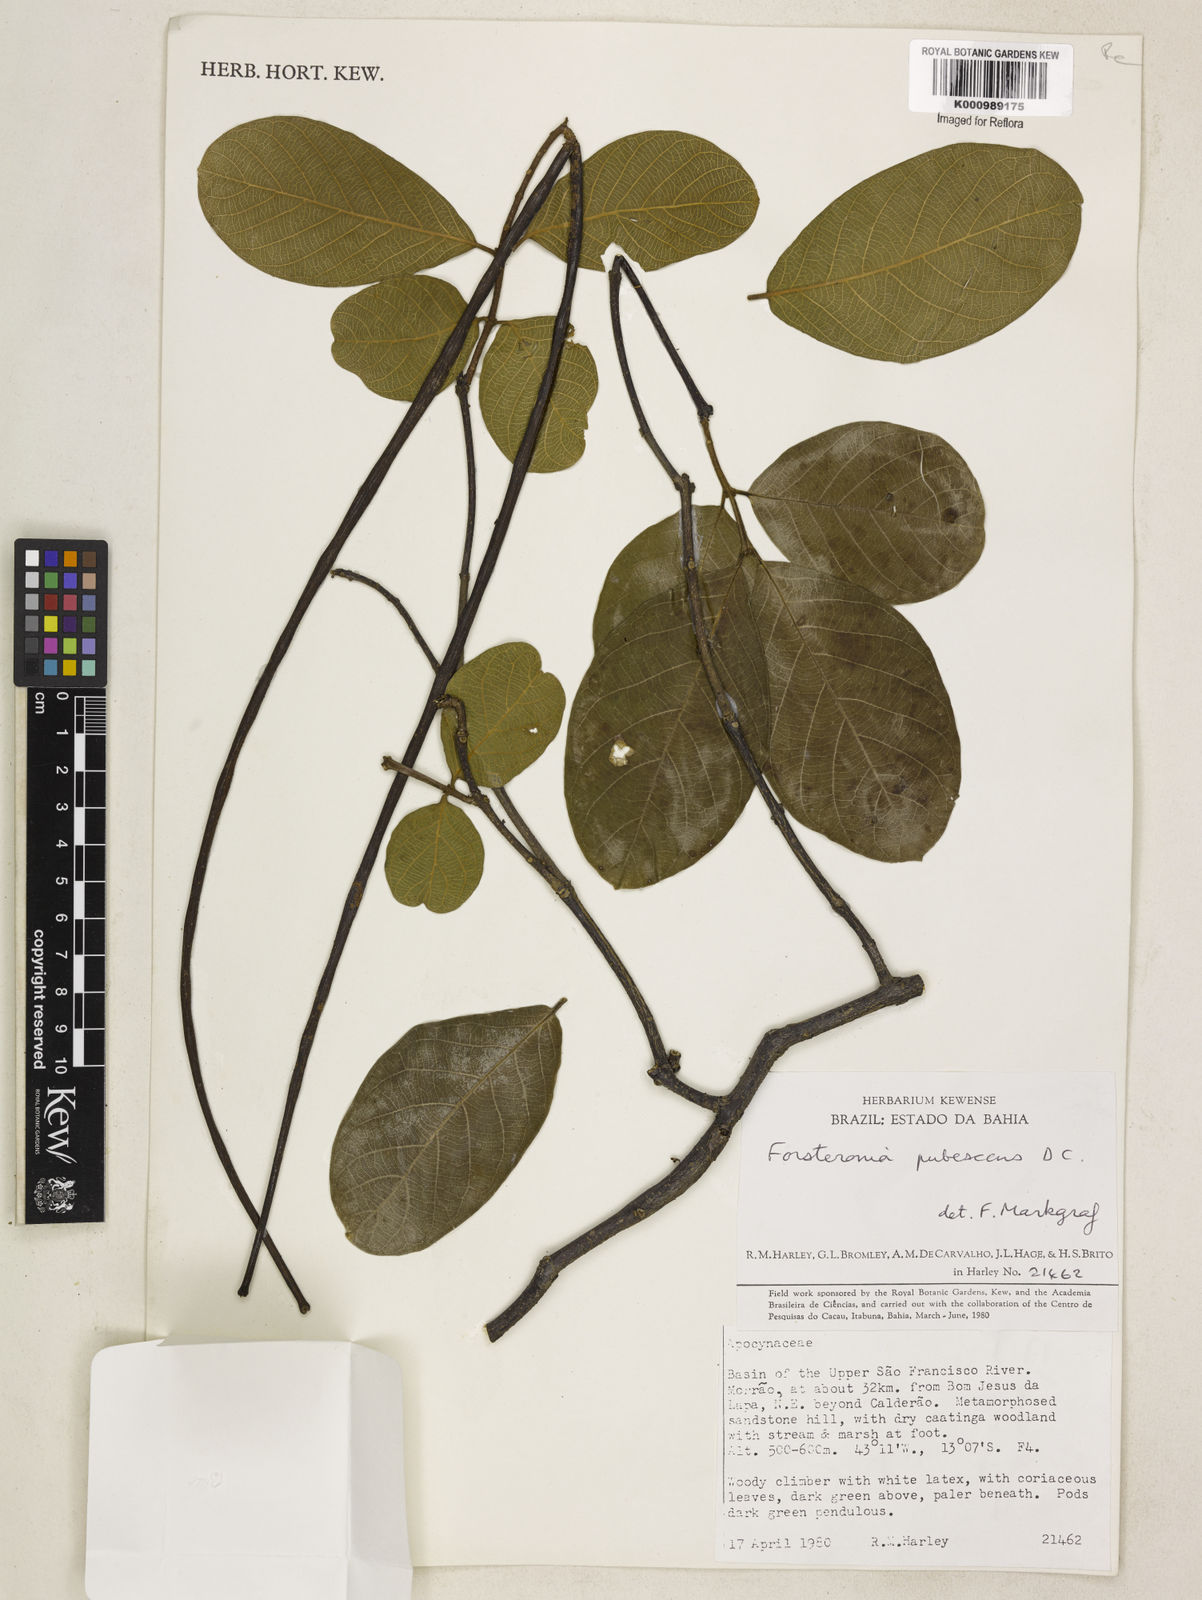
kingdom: Plantae
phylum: Tracheophyta
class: Magnoliopsida
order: Gentianales
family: Apocynaceae
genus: Forsteronia
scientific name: Forsteronia
